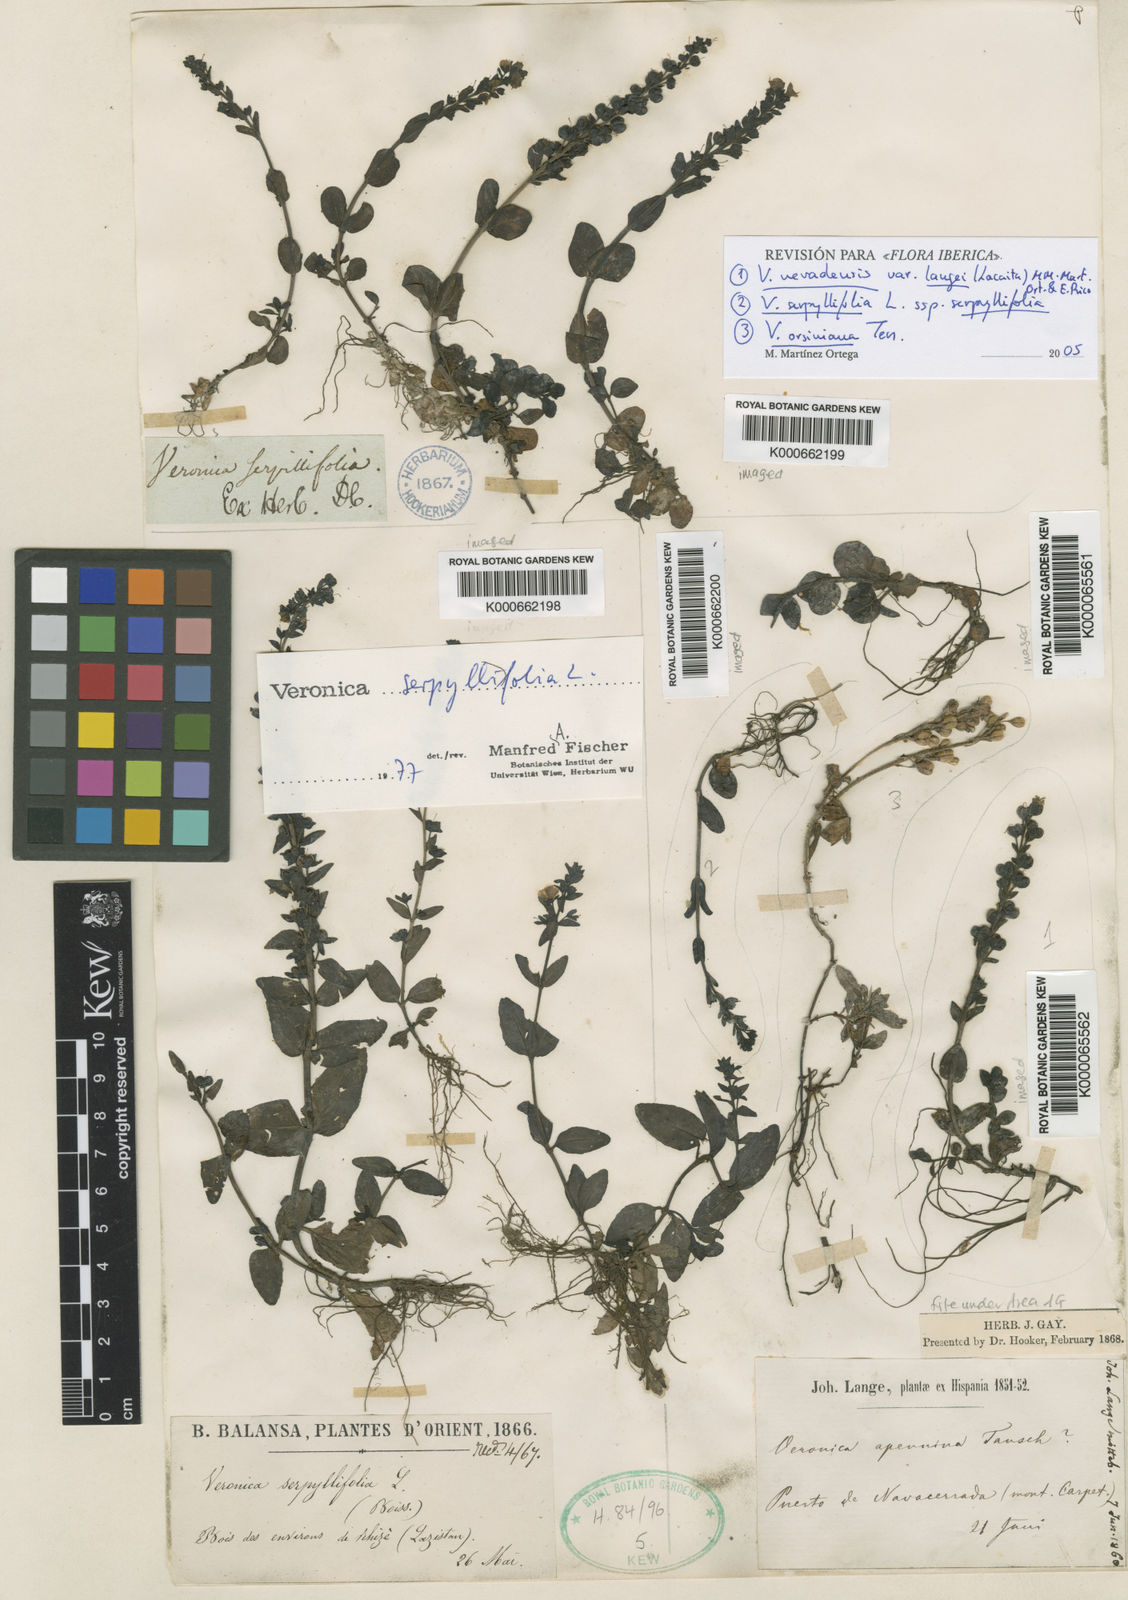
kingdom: Plantae
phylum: Tracheophyta
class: Magnoliopsida
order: Lamiales
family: Plantaginaceae
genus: Veronica
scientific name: Veronica nevadensis
